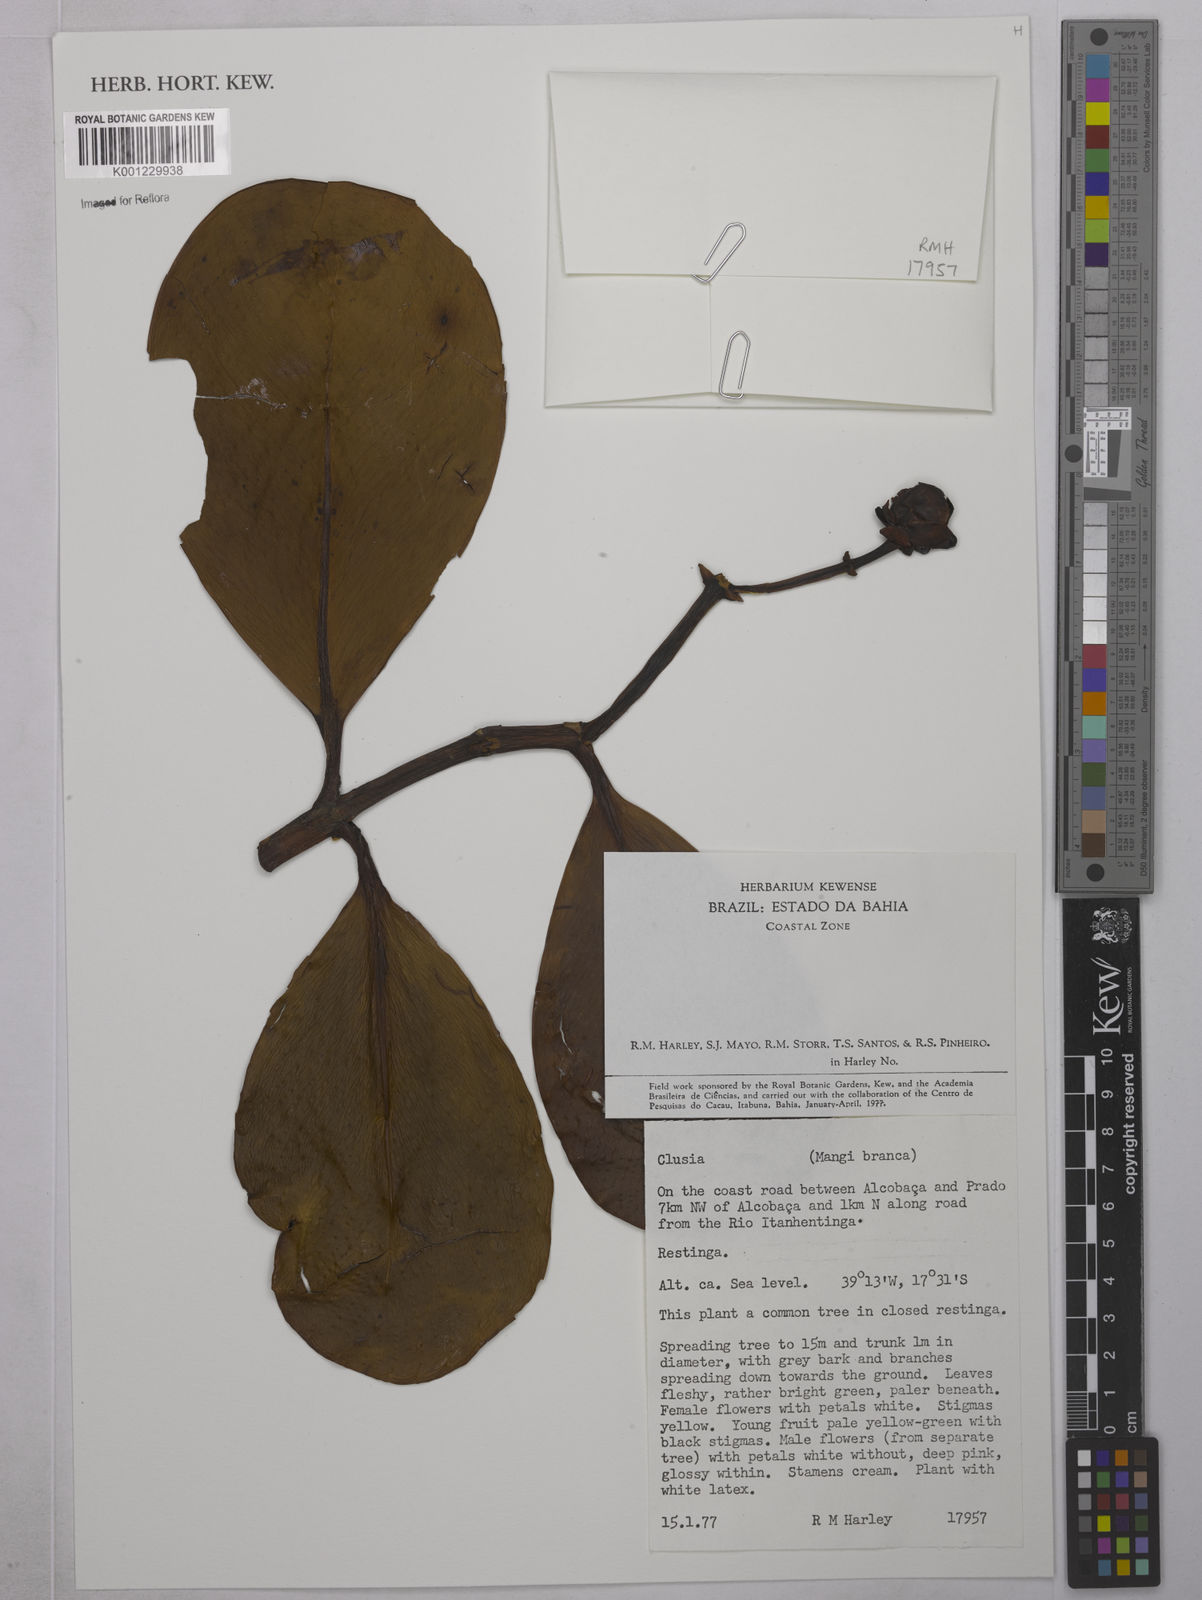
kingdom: Plantae
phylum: Tracheophyta
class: Magnoliopsida
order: Malpighiales
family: Clusiaceae
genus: Clusia
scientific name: Clusia
